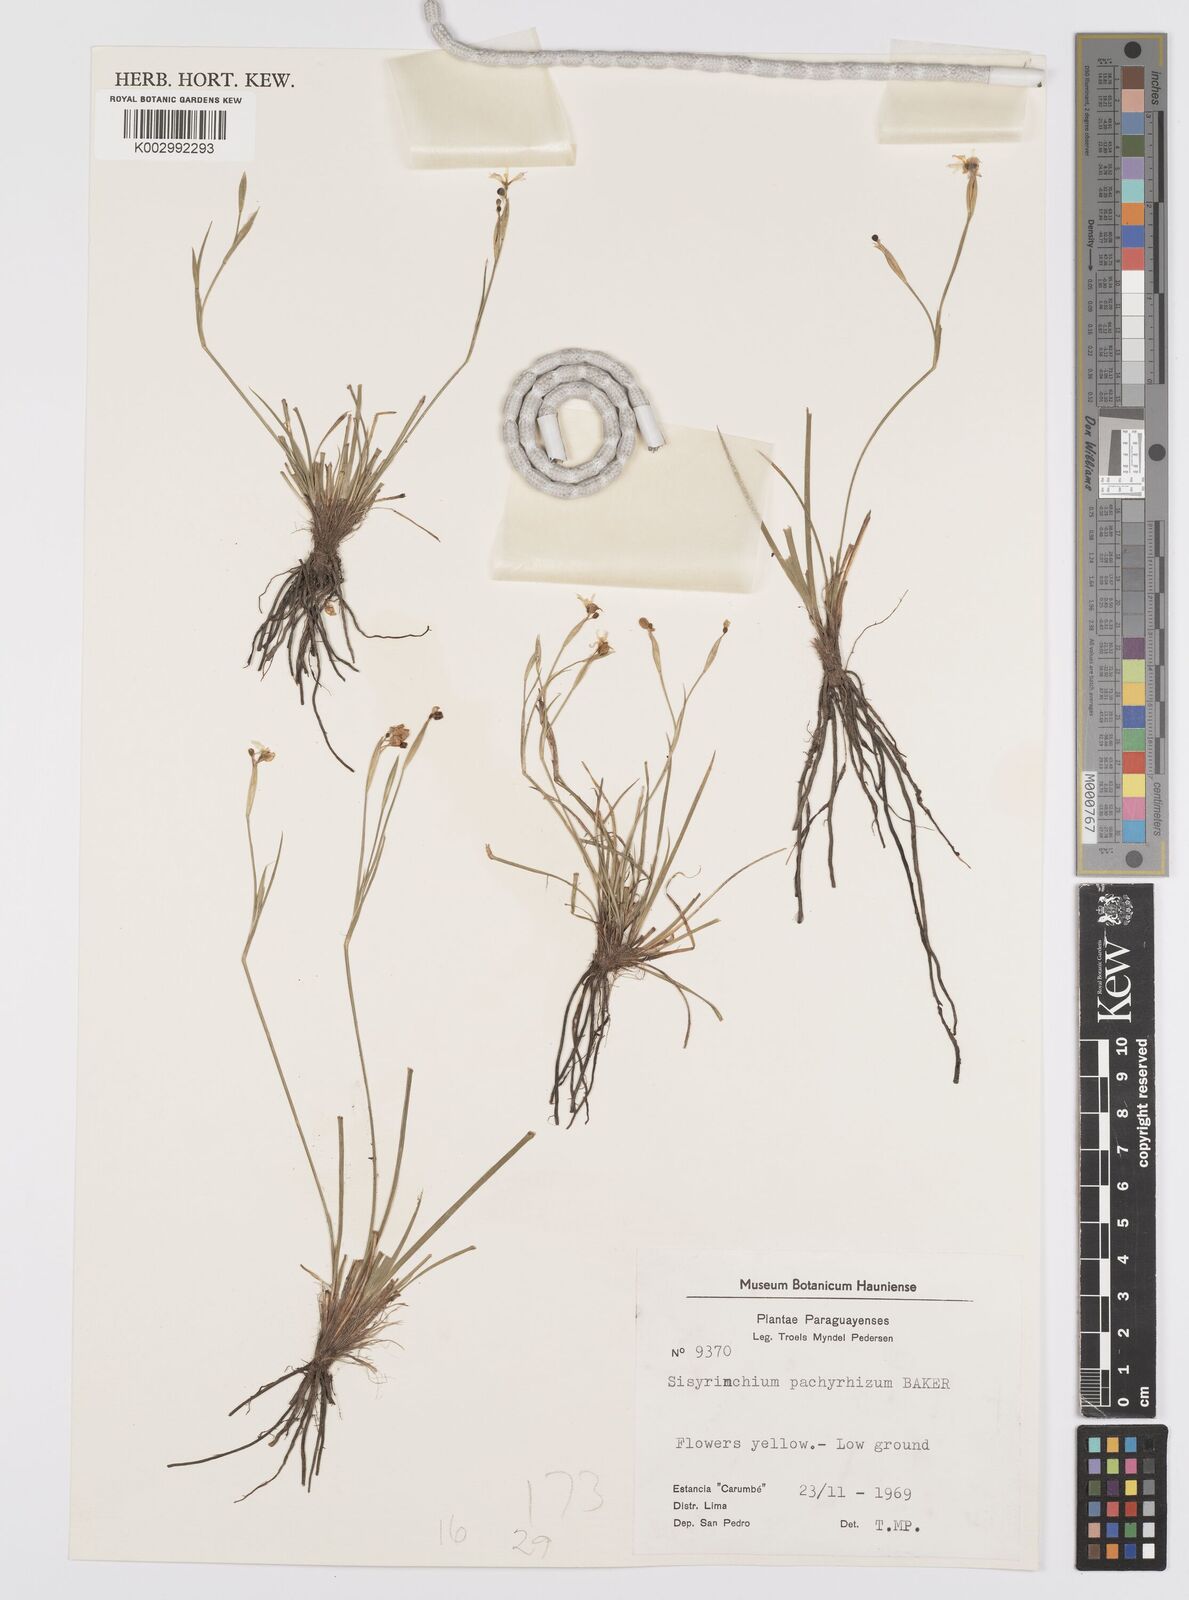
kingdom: Plantae
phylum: Tracheophyta
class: Liliopsida
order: Asparagales
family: Iridaceae
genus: Sisyrinchium
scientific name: Sisyrinchium pachyrhizum
